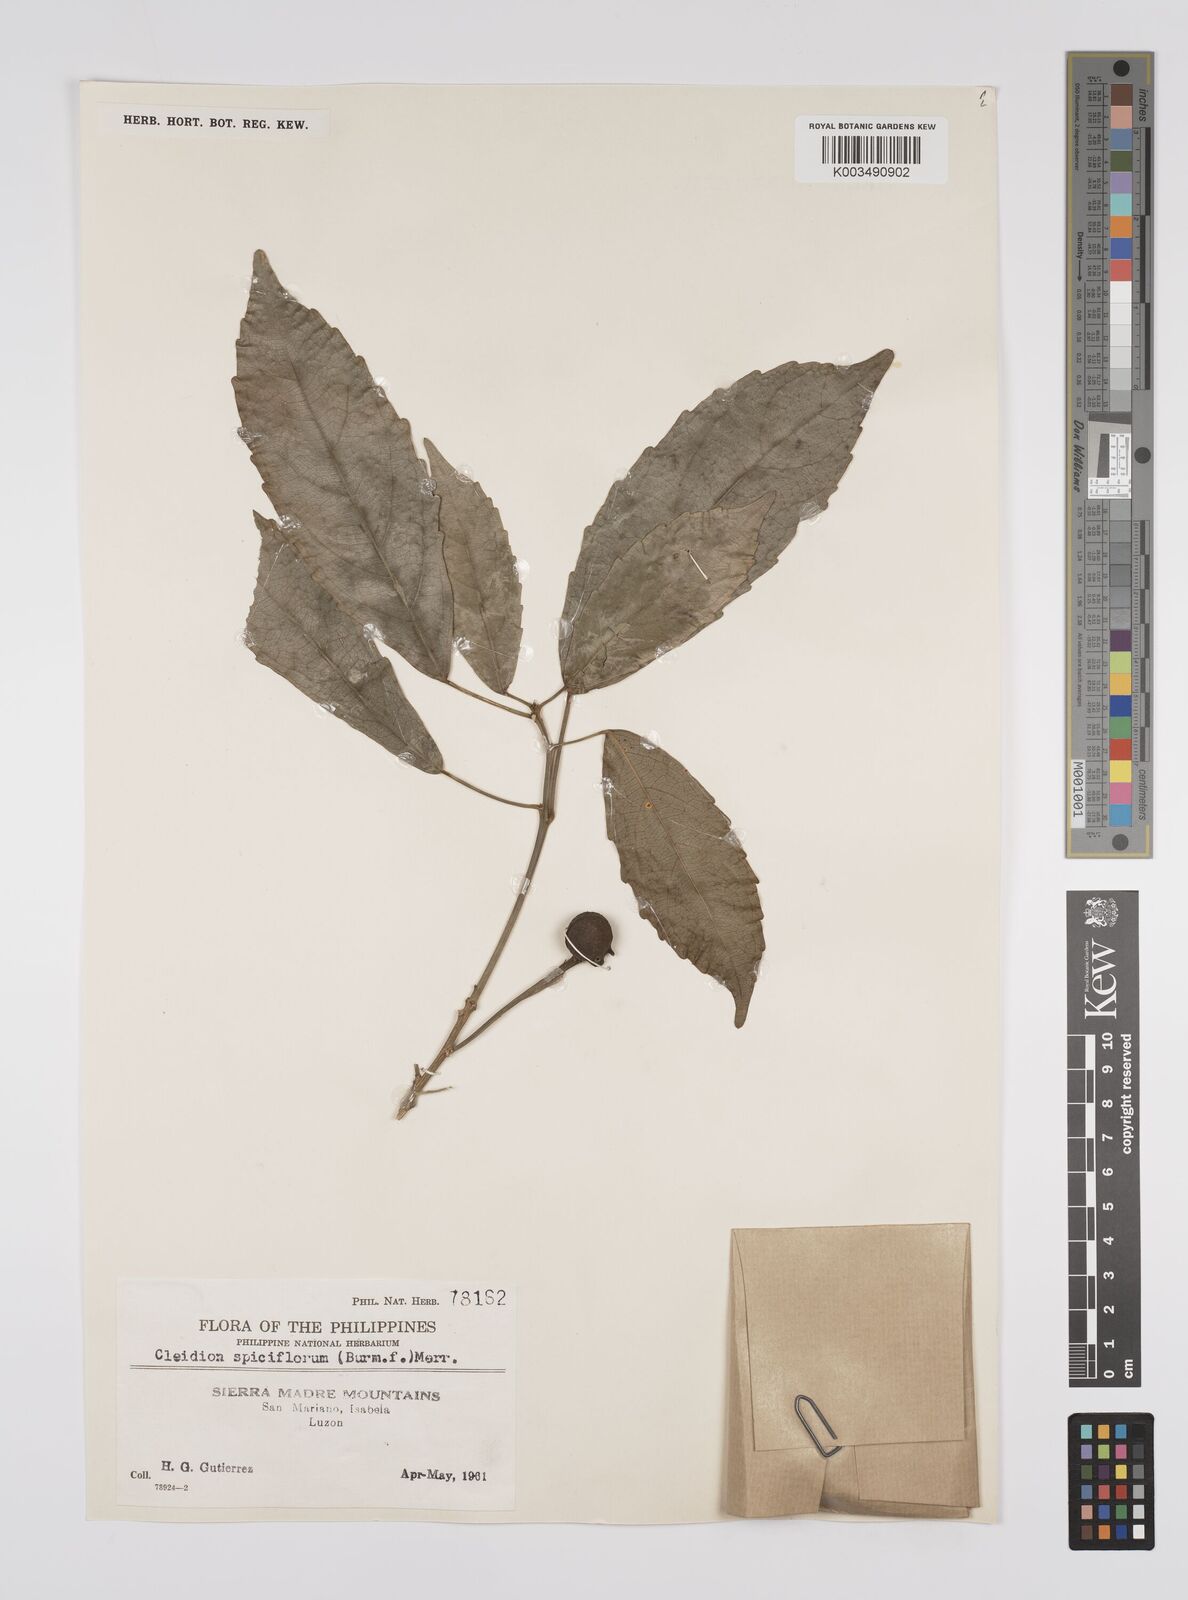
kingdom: Plantae
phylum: Tracheophyta
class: Magnoliopsida
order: Malpighiales
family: Euphorbiaceae
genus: Cleidion
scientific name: Cleidion javanicum
